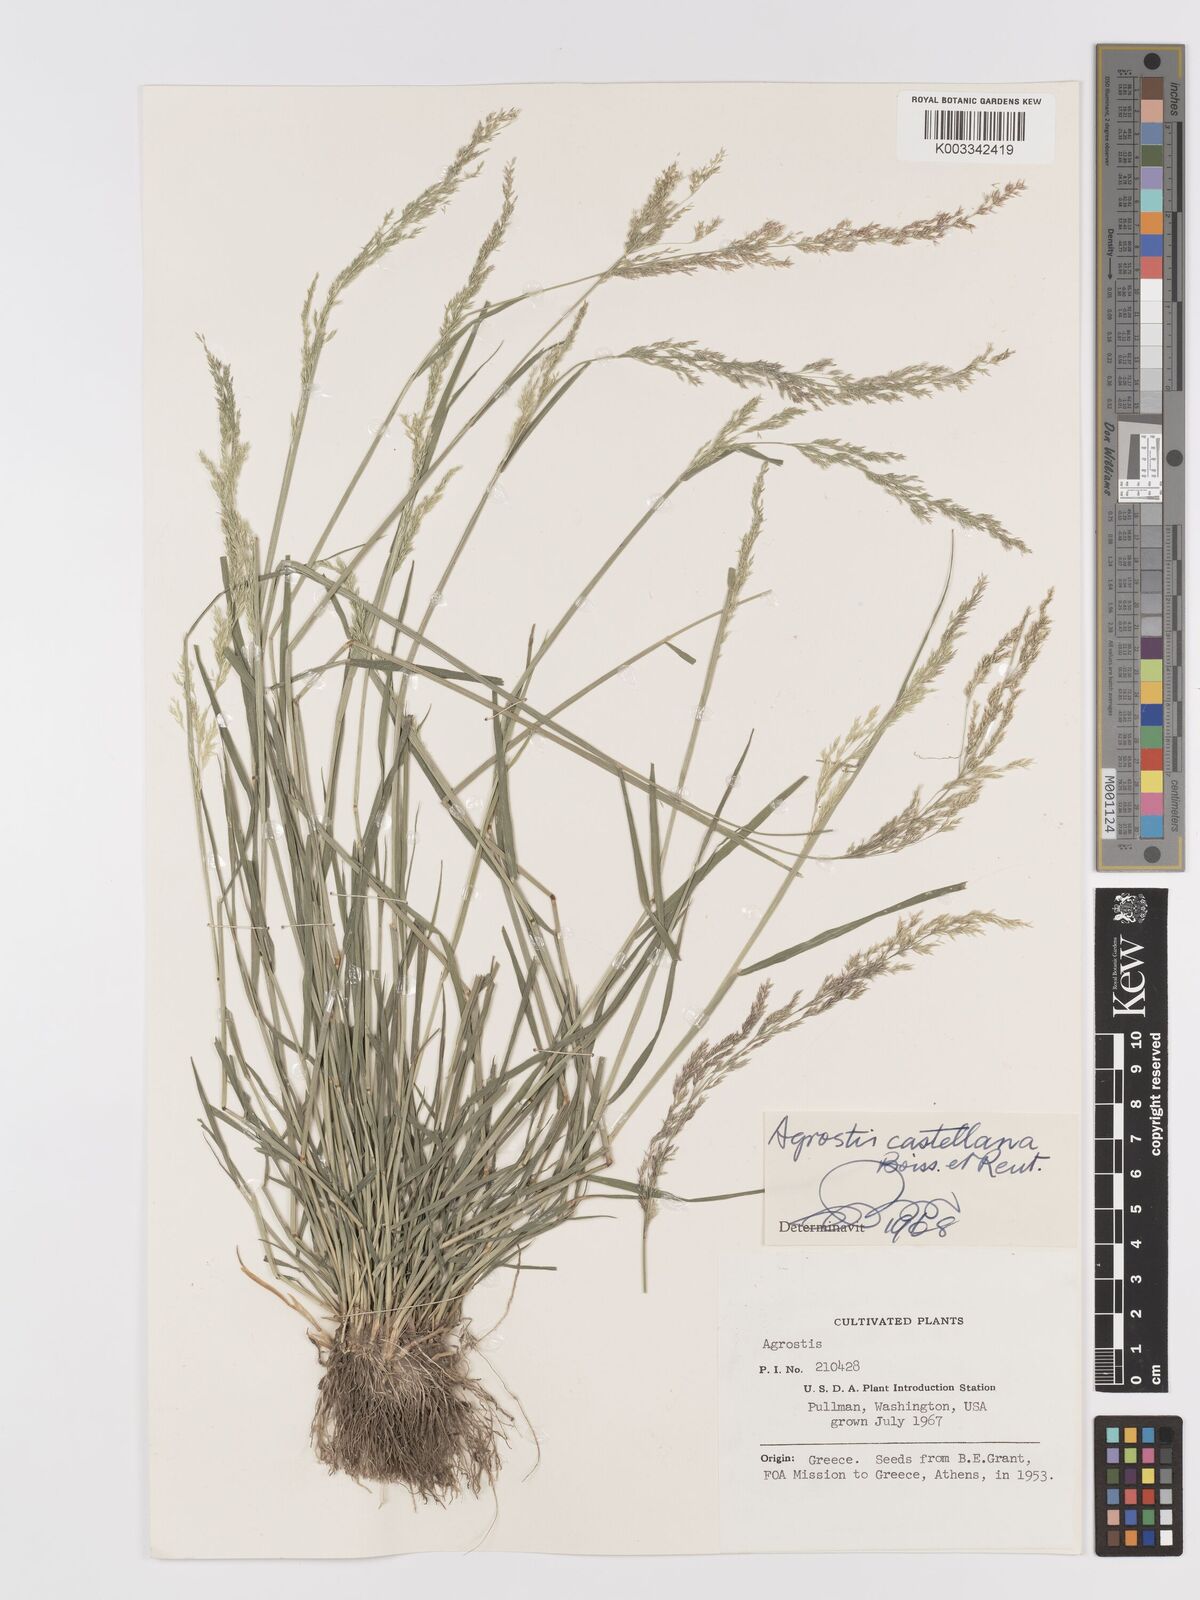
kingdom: Plantae
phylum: Tracheophyta
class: Liliopsida
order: Poales
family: Poaceae
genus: Agrostis
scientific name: Agrostis castellana
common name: Highland bent
